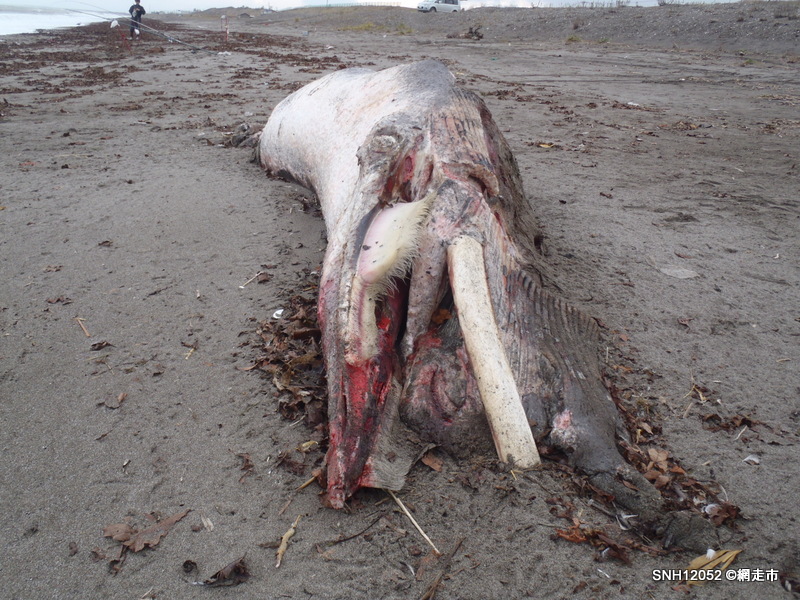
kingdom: Animalia
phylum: Chordata
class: Mammalia
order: Cetacea
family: Balaenopteridae
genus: Balaenoptera
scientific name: Balaenoptera acutorostrata
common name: Minke whale
